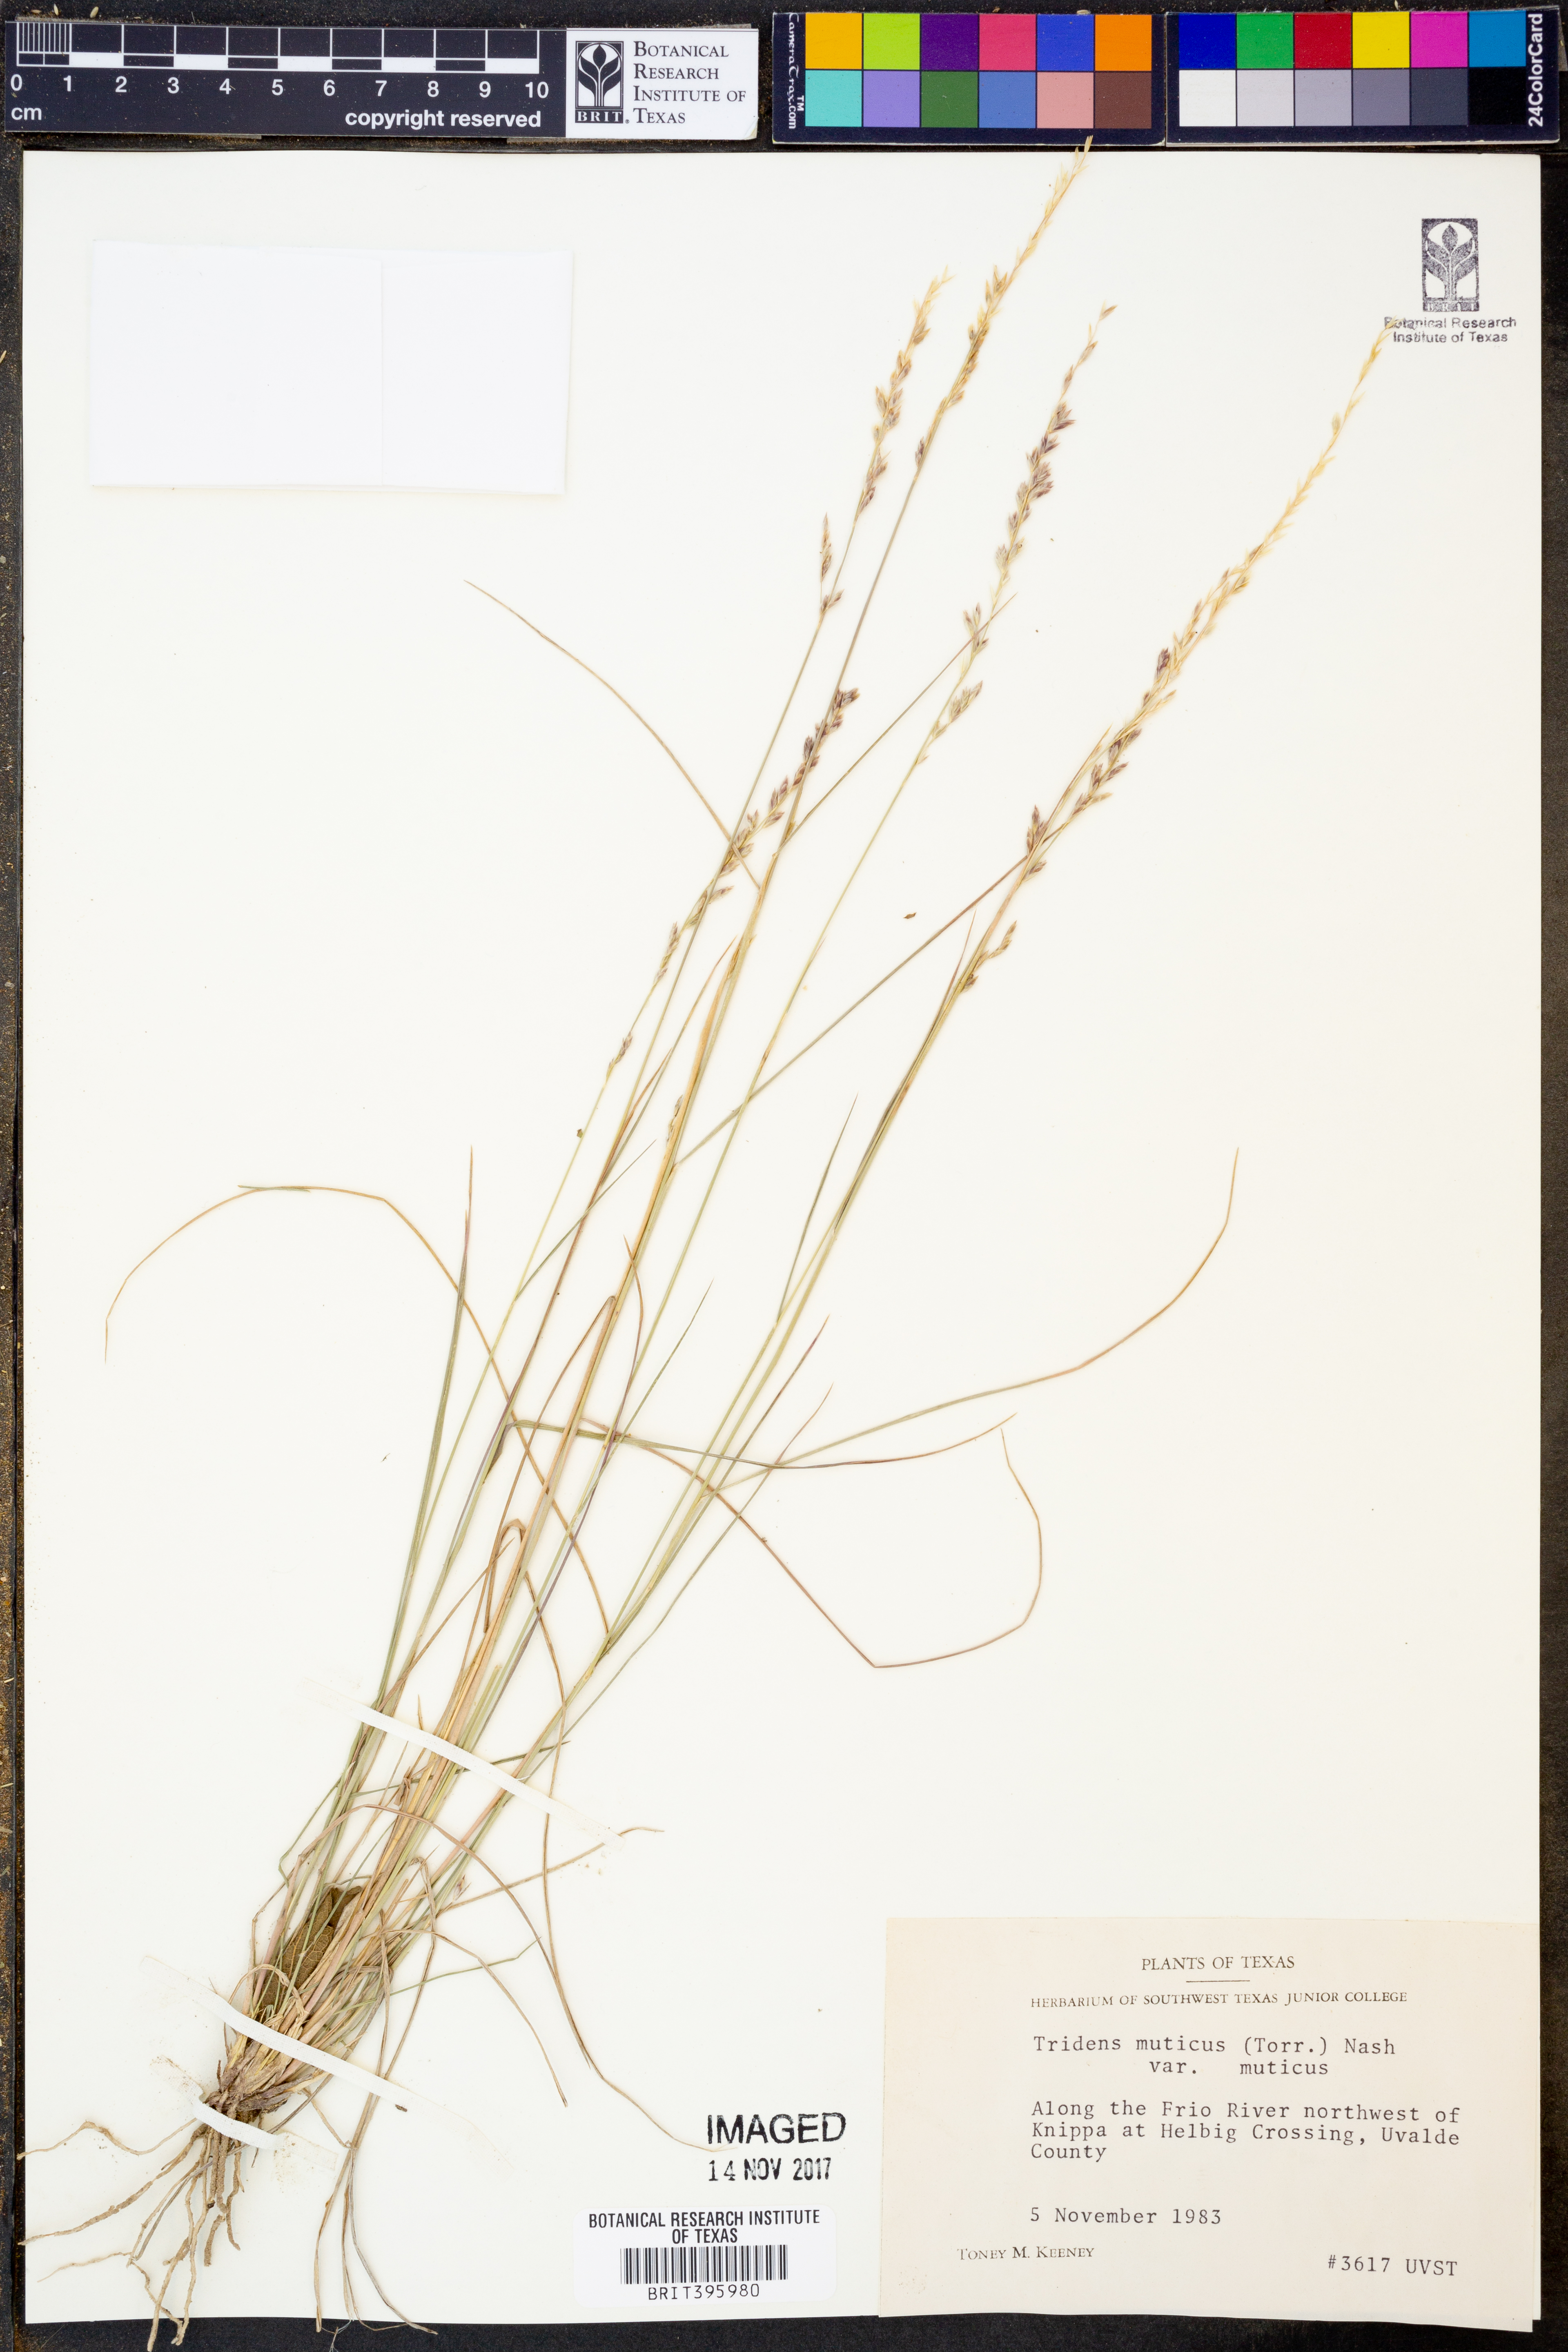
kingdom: Plantae
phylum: Tracheophyta
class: Liliopsida
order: Poales
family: Poaceae
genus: Tridentopsis
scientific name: Tridentopsis mutica
